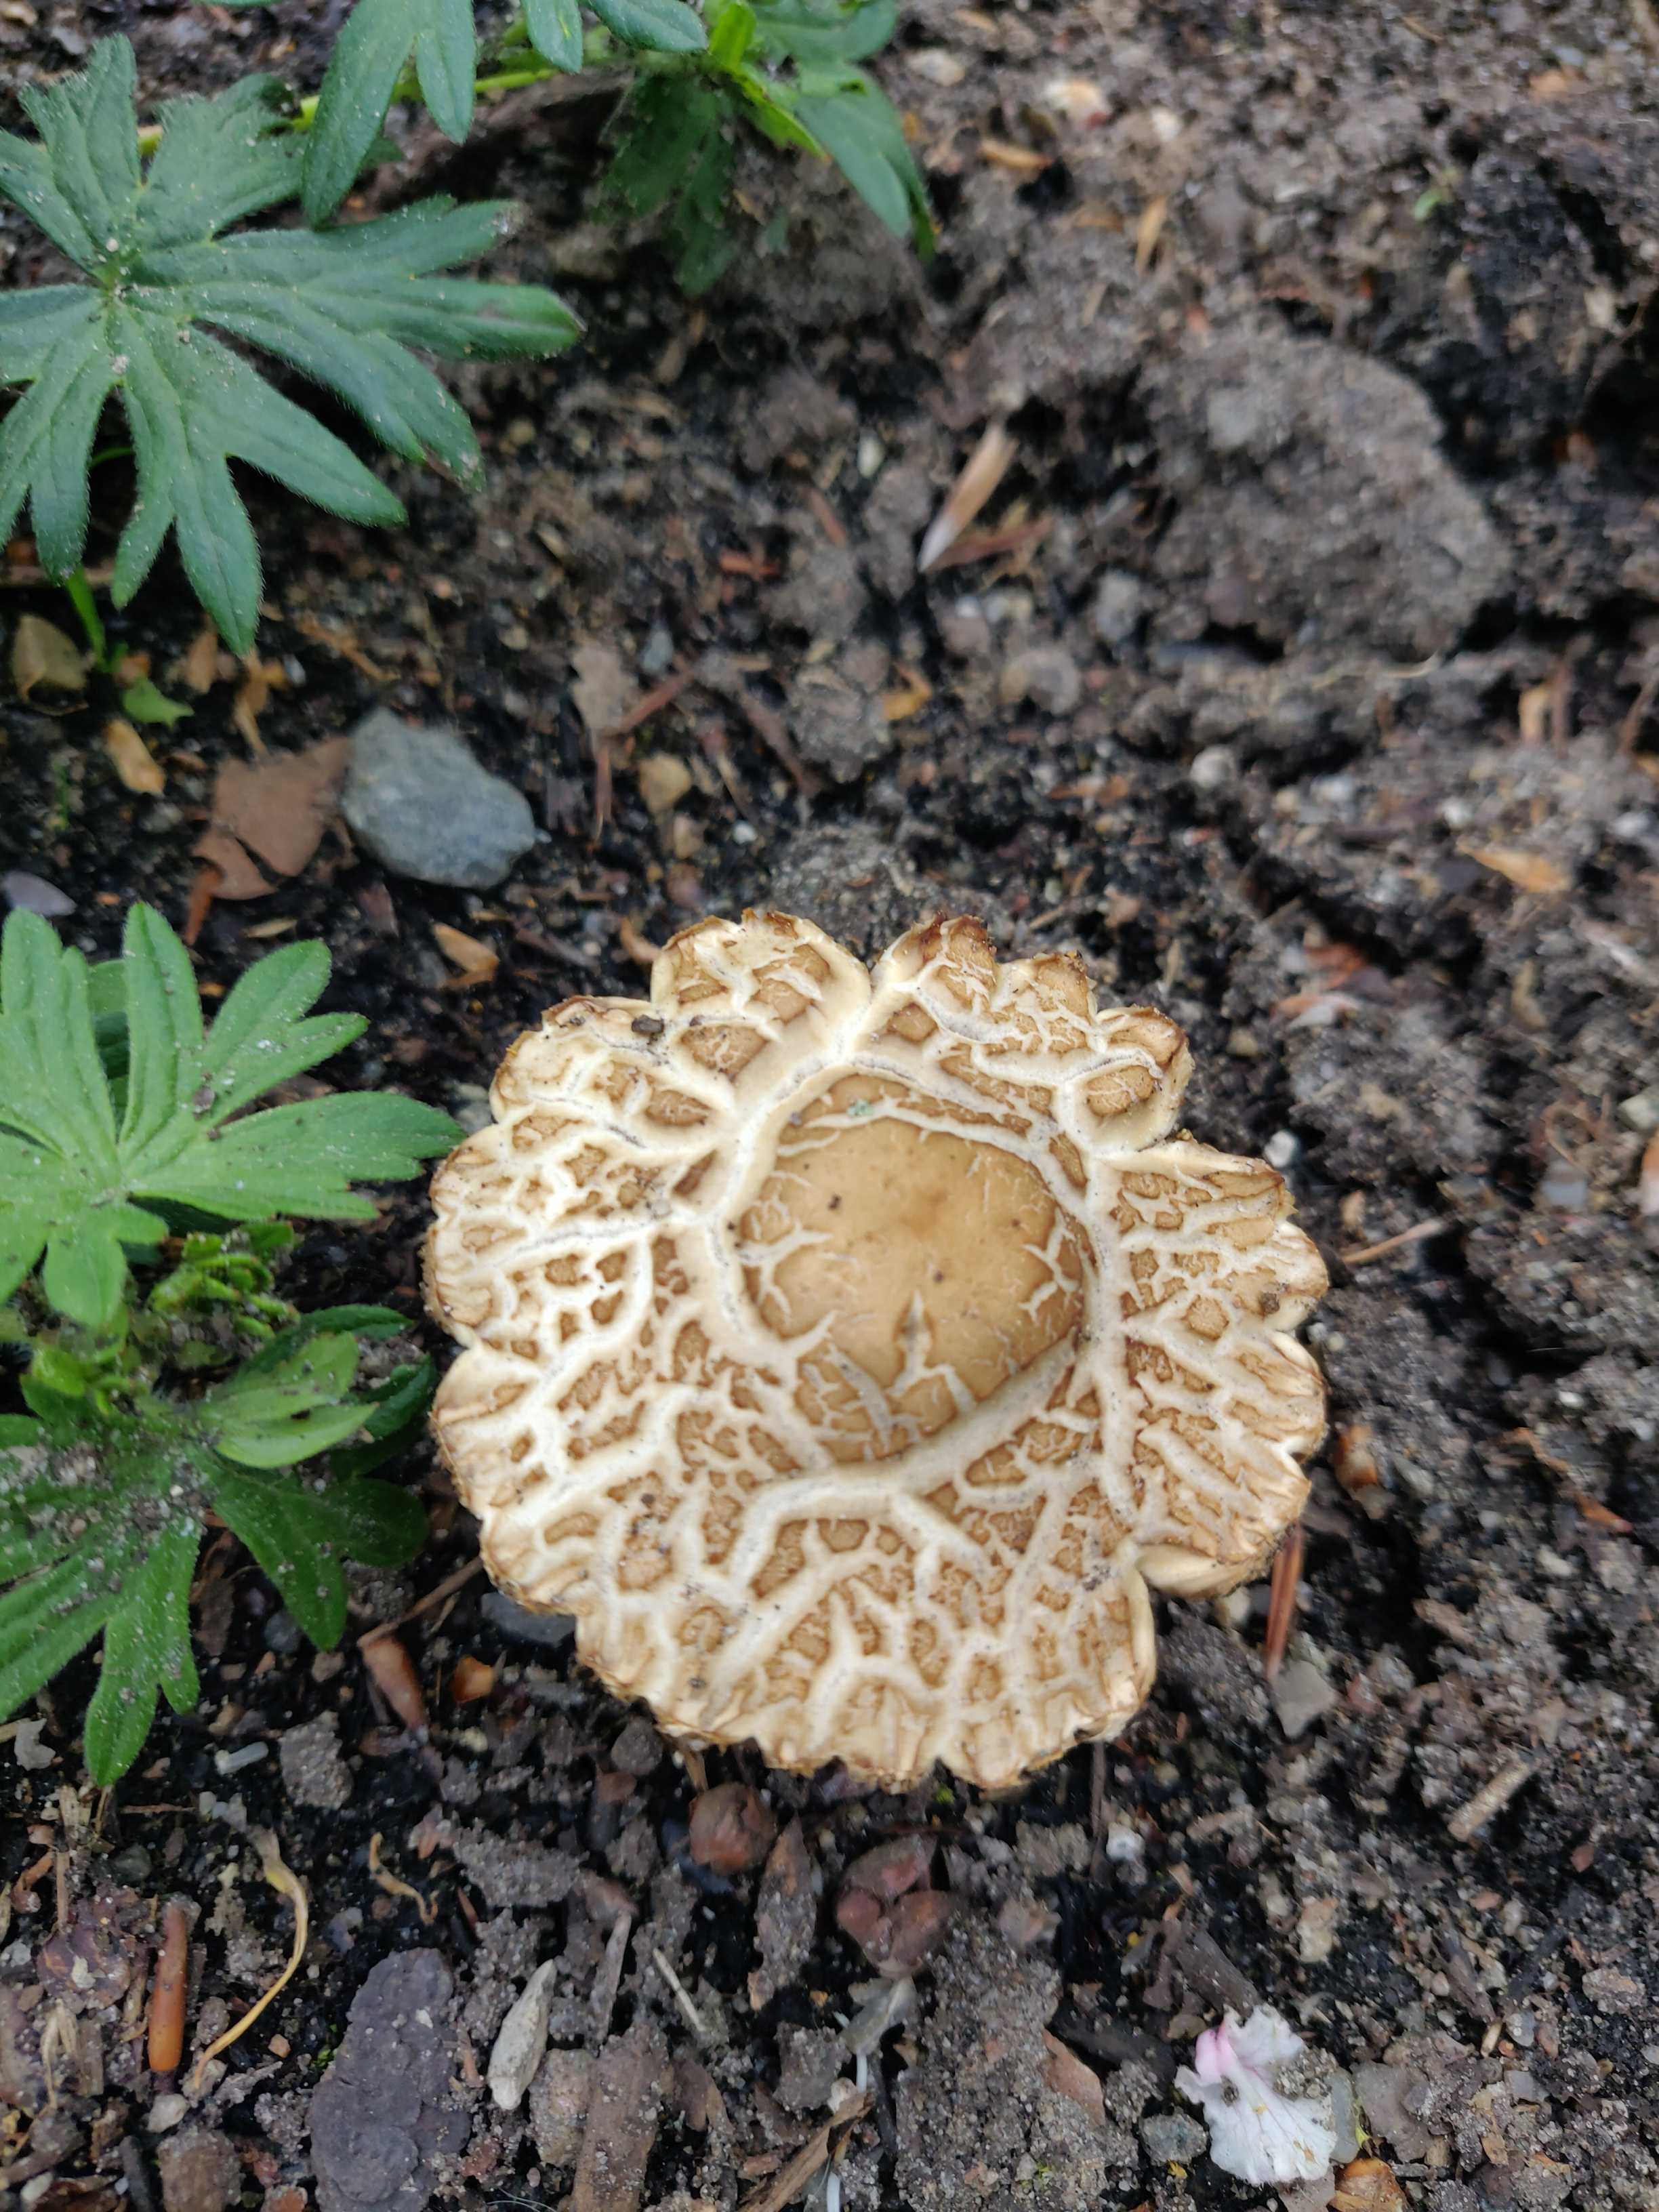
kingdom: Fungi
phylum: Basidiomycota
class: Agaricomycetes
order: Agaricales
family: Strophariaceae
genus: Agrocybe
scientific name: Agrocybe
